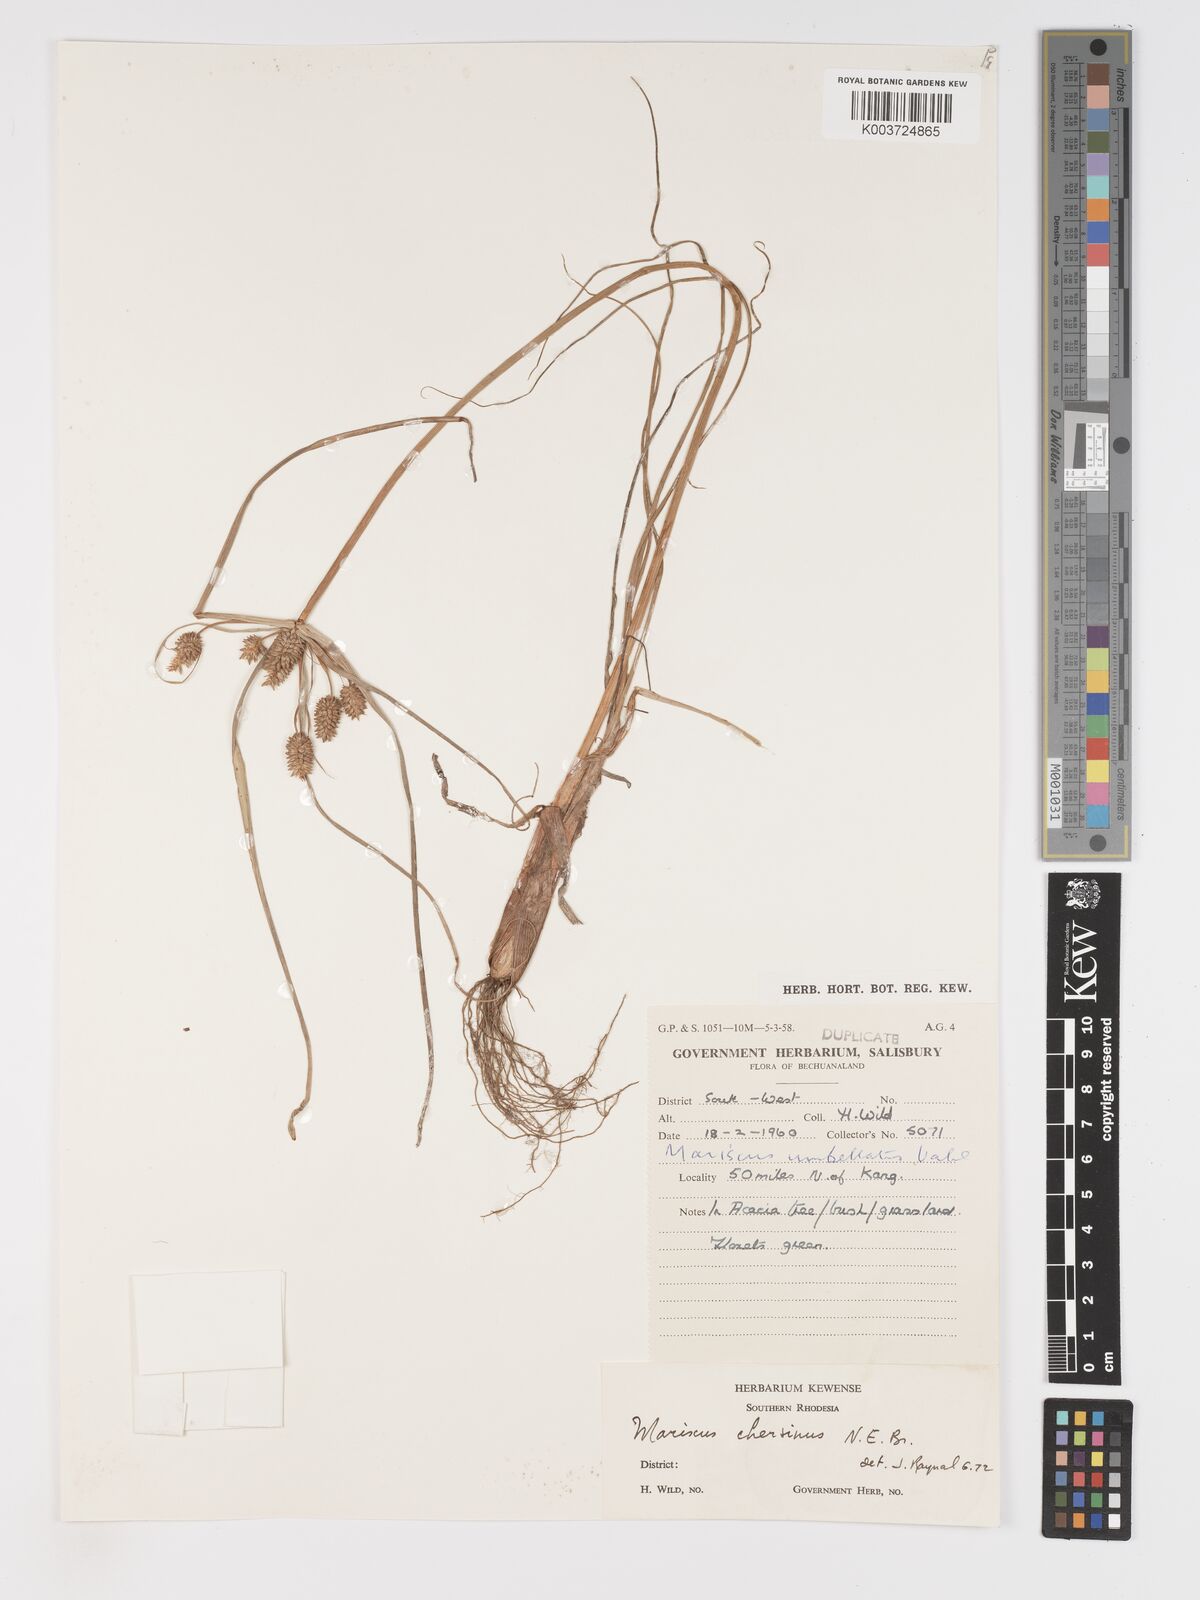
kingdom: Plantae
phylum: Tracheophyta
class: Liliopsida
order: Poales
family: Cyperaceae
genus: Cyperus
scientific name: Cyperus chersinus
